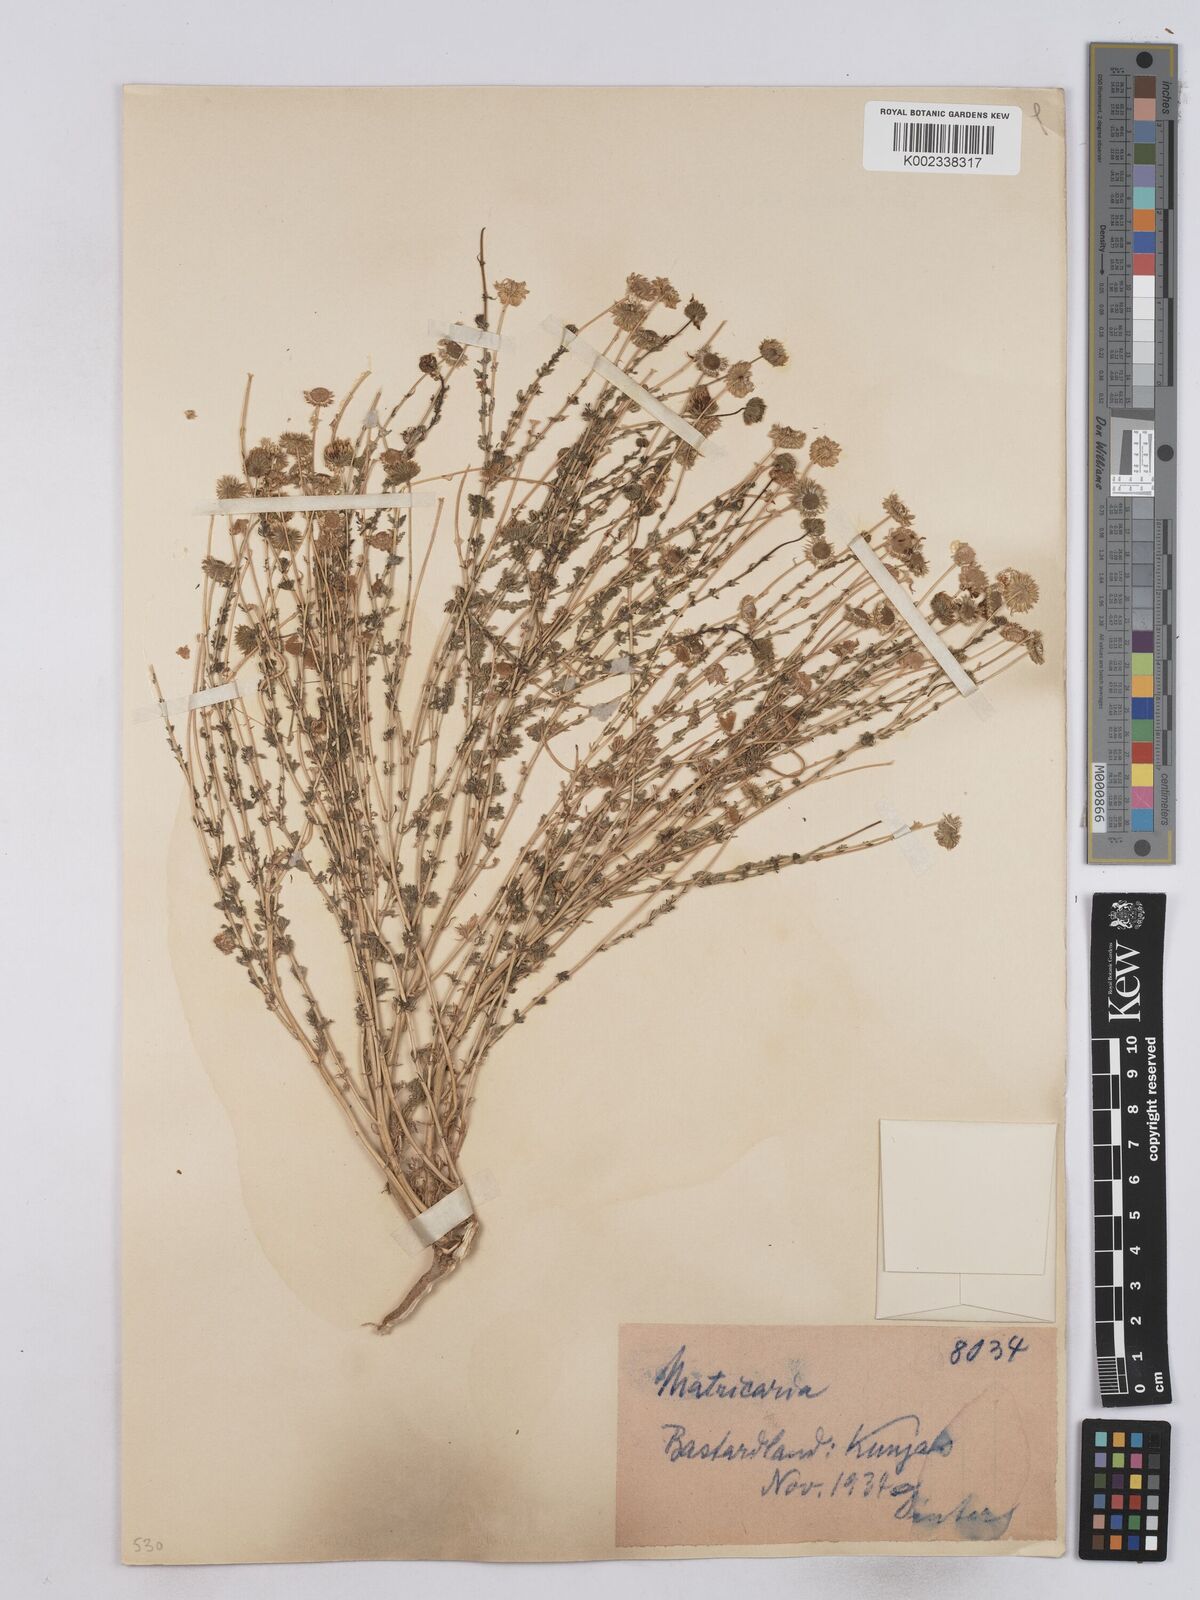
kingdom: Plantae
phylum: Tracheophyta
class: Magnoliopsida
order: Asterales
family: Asteraceae
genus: Matricaria
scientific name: Matricaria
